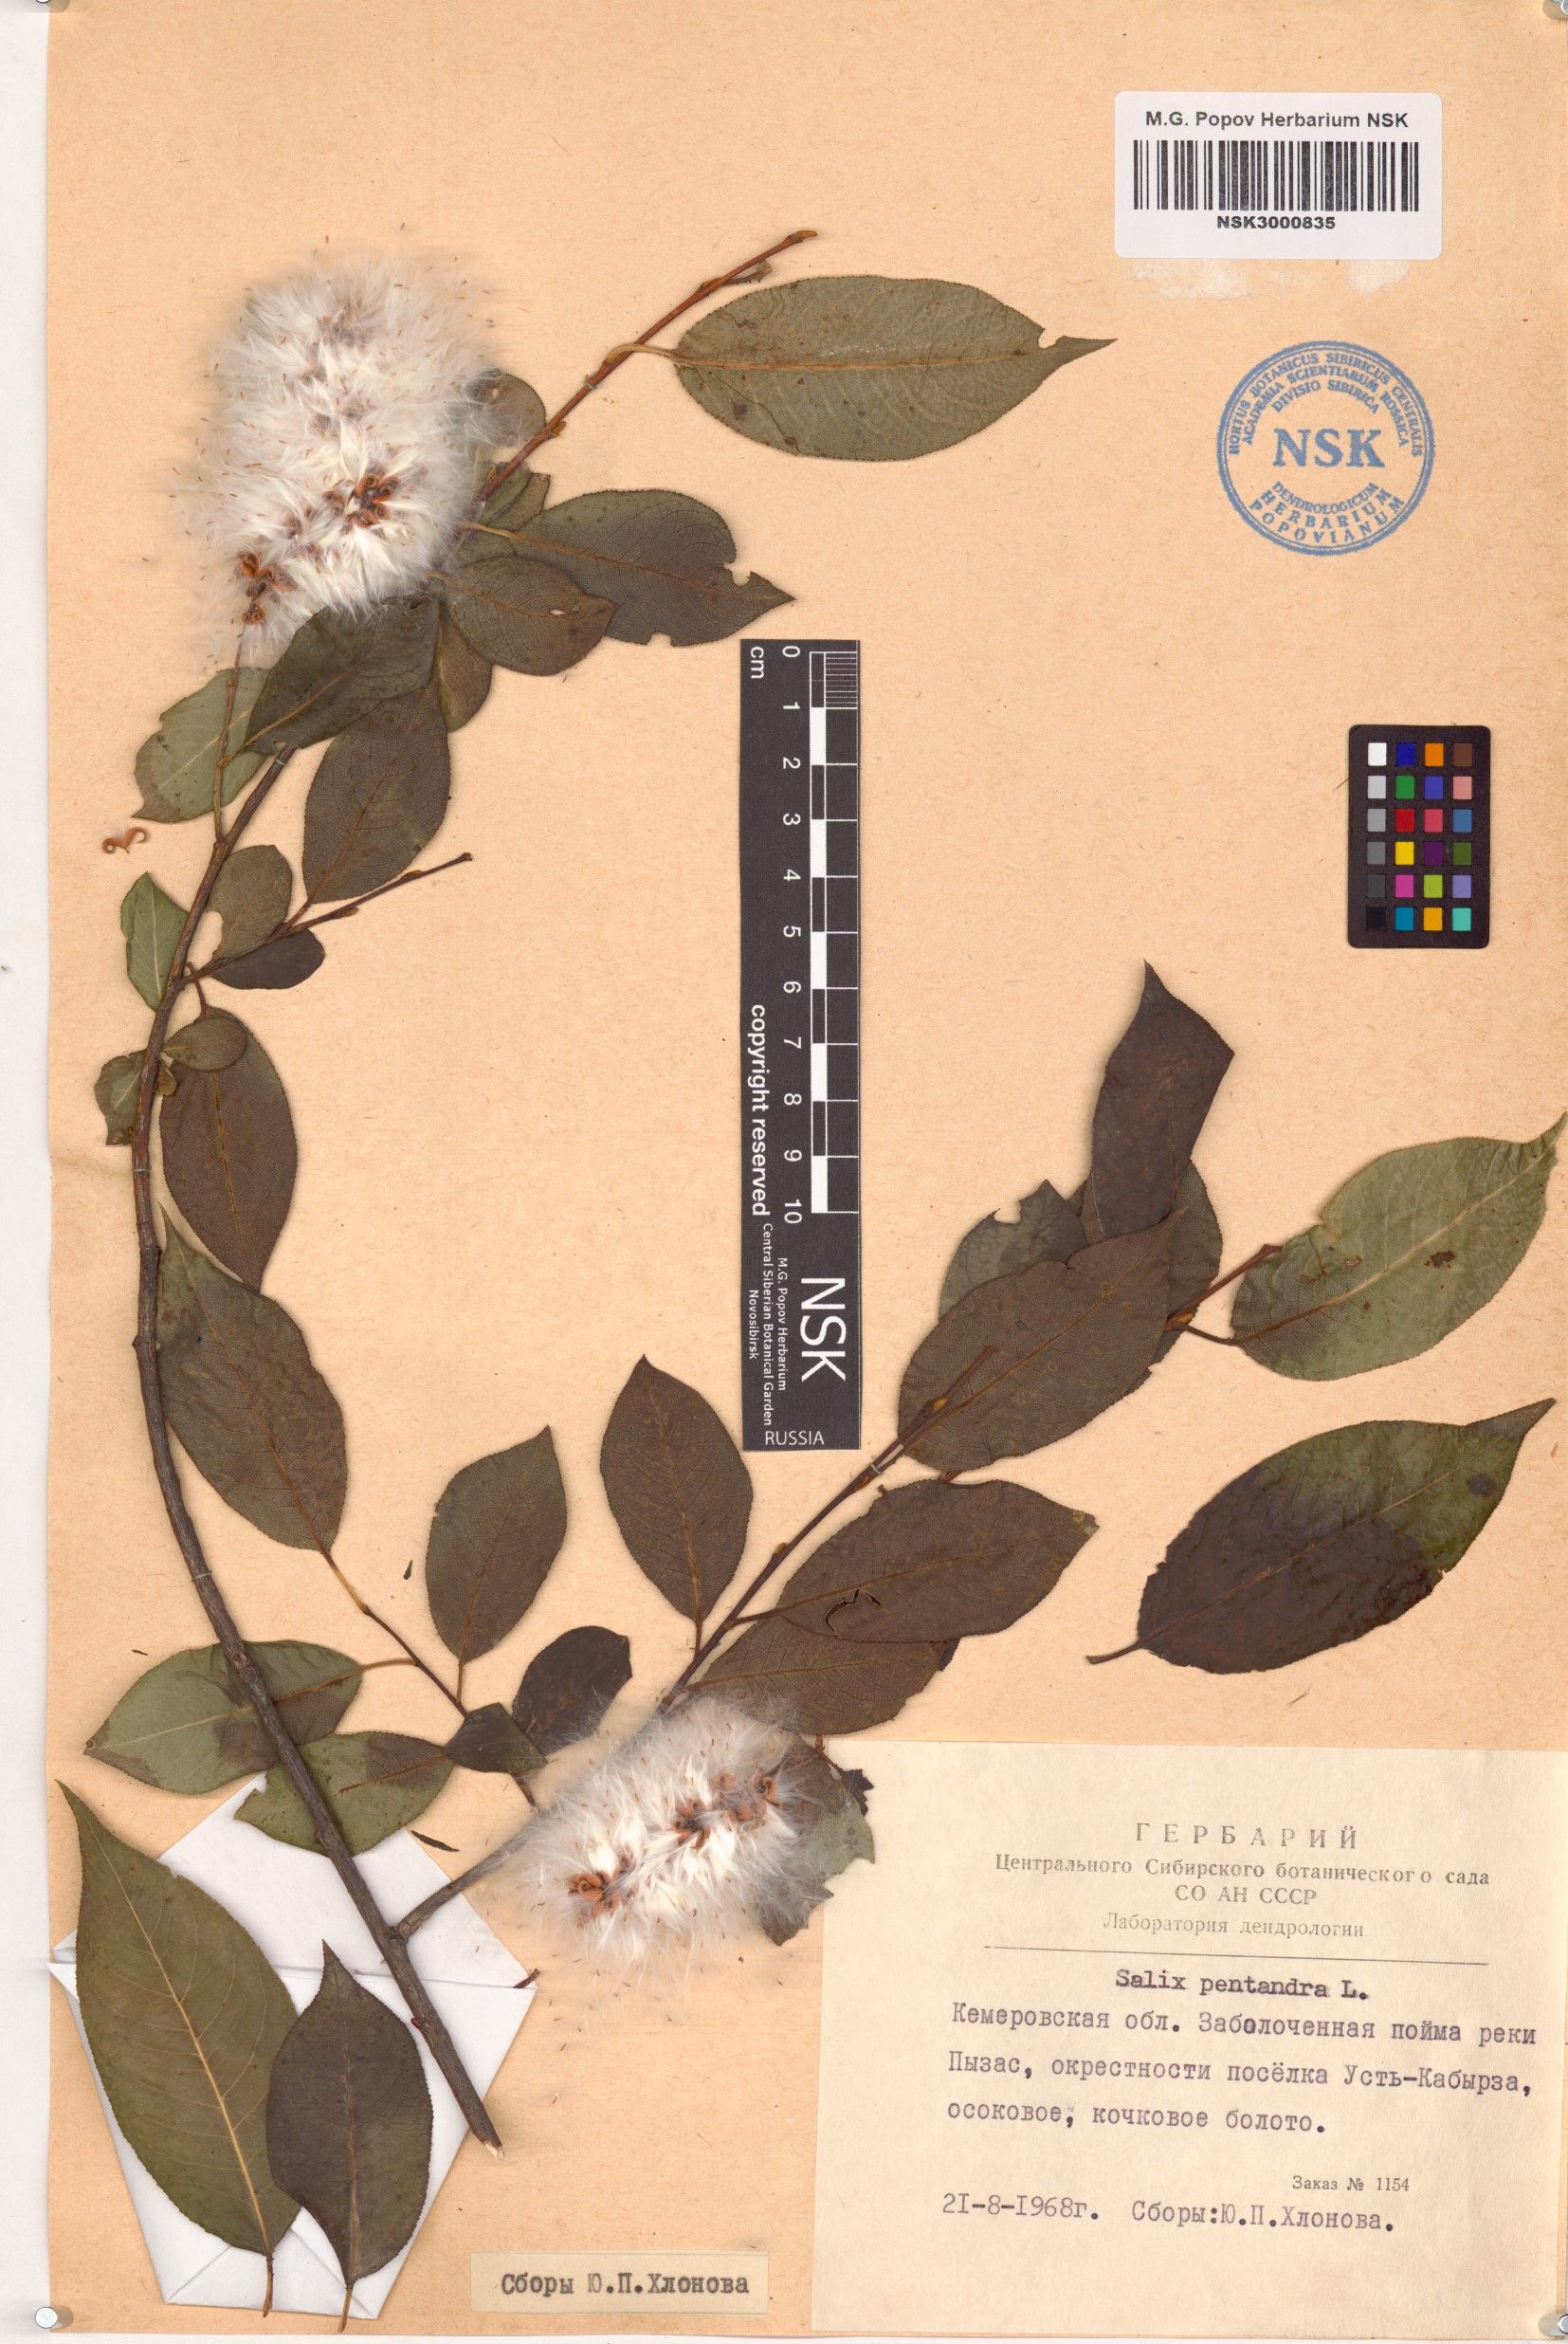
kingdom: Plantae
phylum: Tracheophyta
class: Magnoliopsida
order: Malpighiales
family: Salicaceae
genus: Salix
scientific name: Salix pentandra
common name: Bay willow
